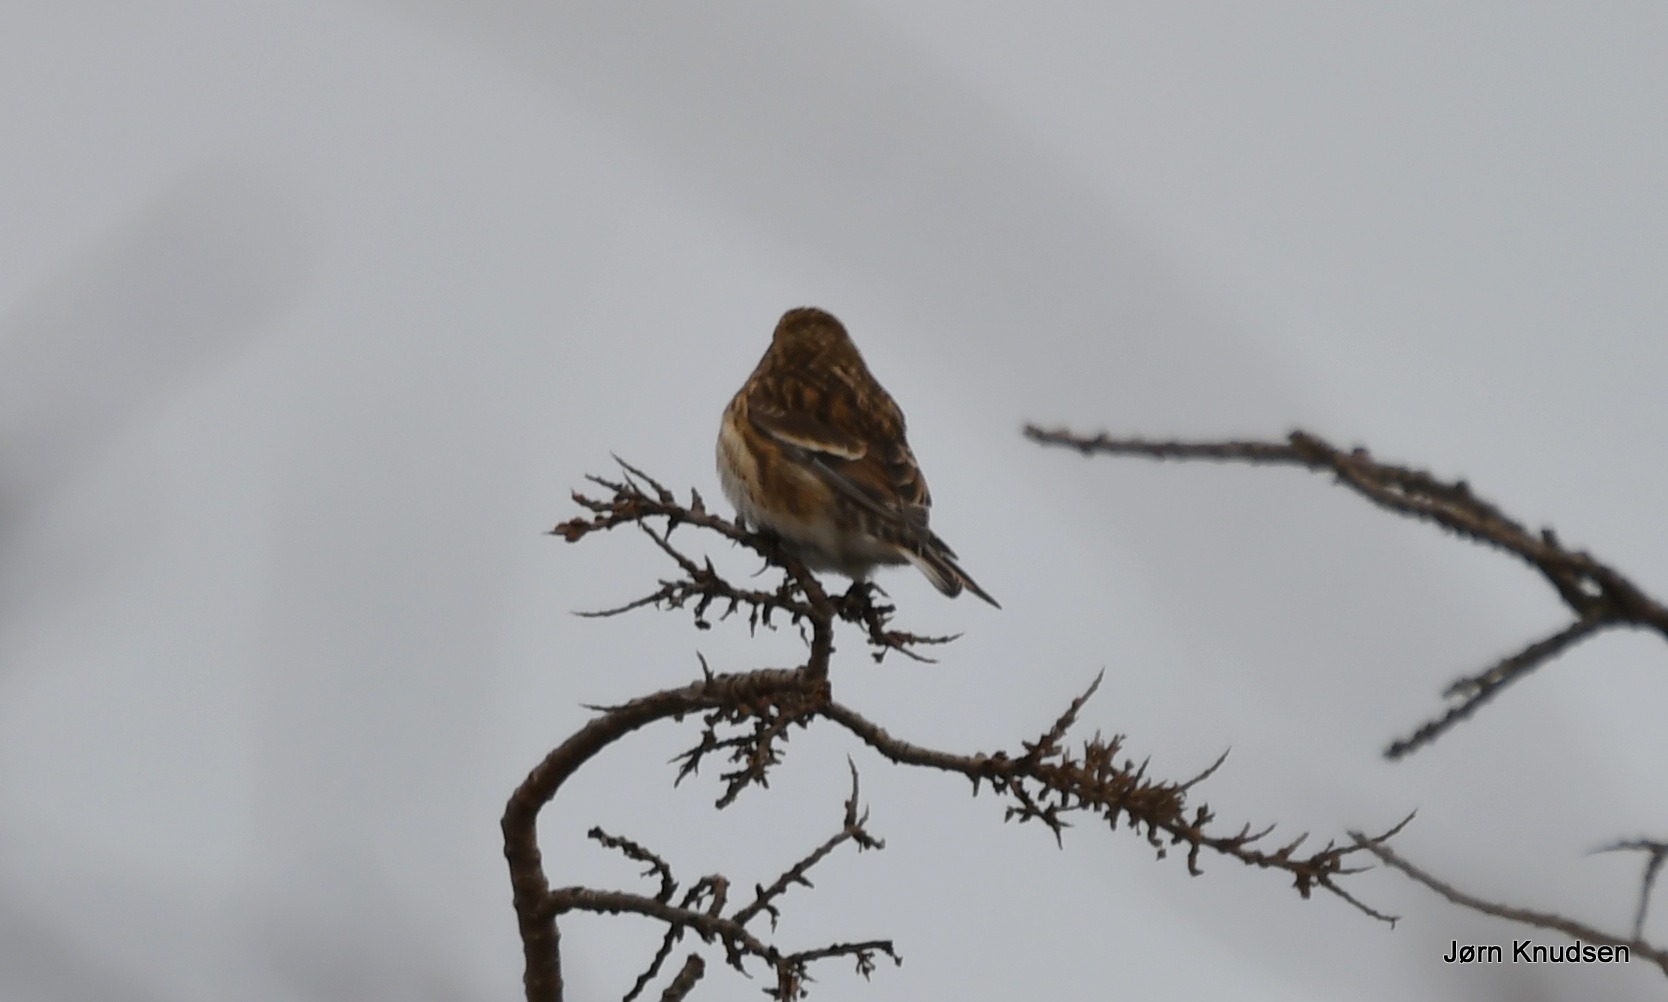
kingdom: Animalia
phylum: Chordata
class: Aves
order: Passeriformes
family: Fringillidae
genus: Linaria
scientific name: Linaria flavirostris
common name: Bjergirisk
